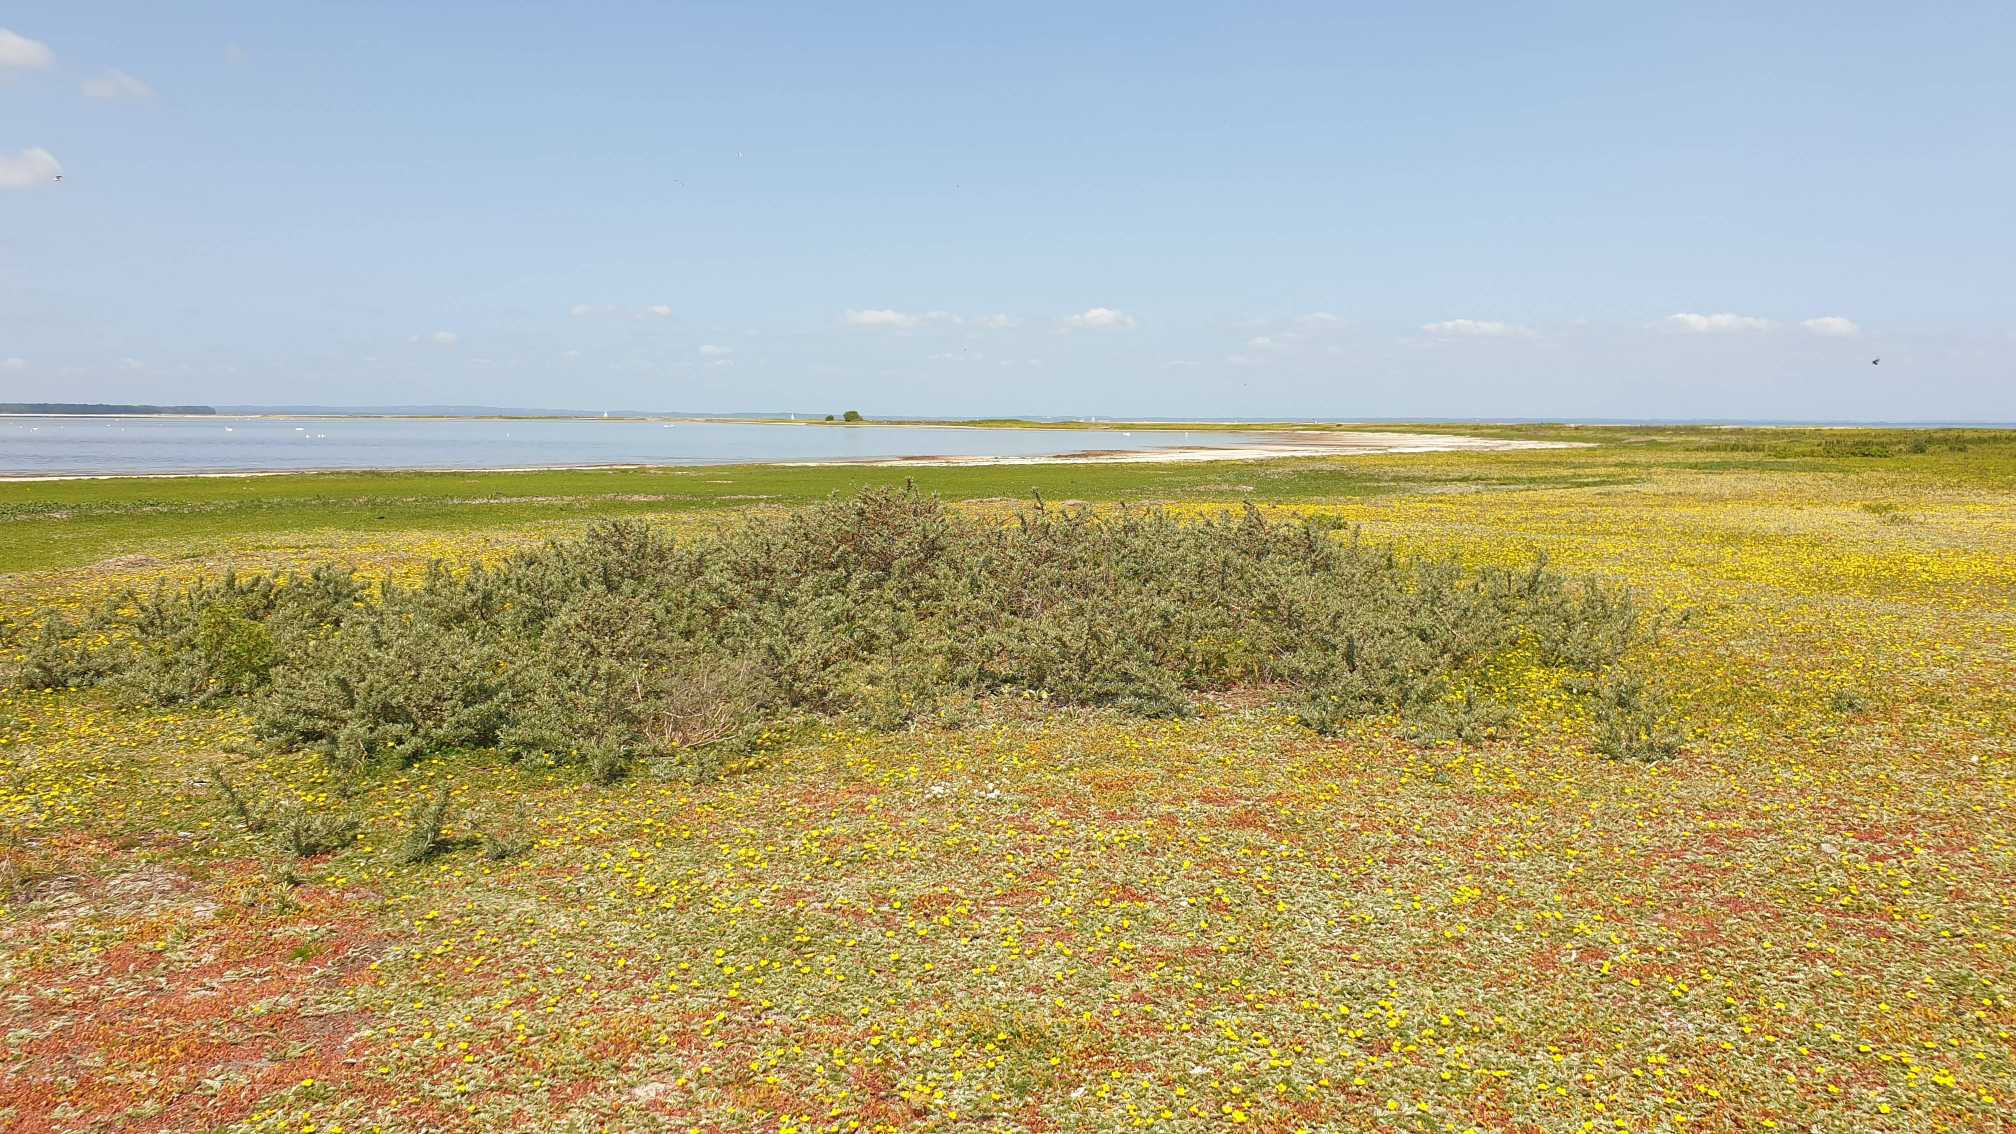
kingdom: Plantae
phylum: Tracheophyta
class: Magnoliopsida
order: Rosales
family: Elaeagnaceae
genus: Hippophae
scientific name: Hippophae rhamnoides
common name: Havtorn
